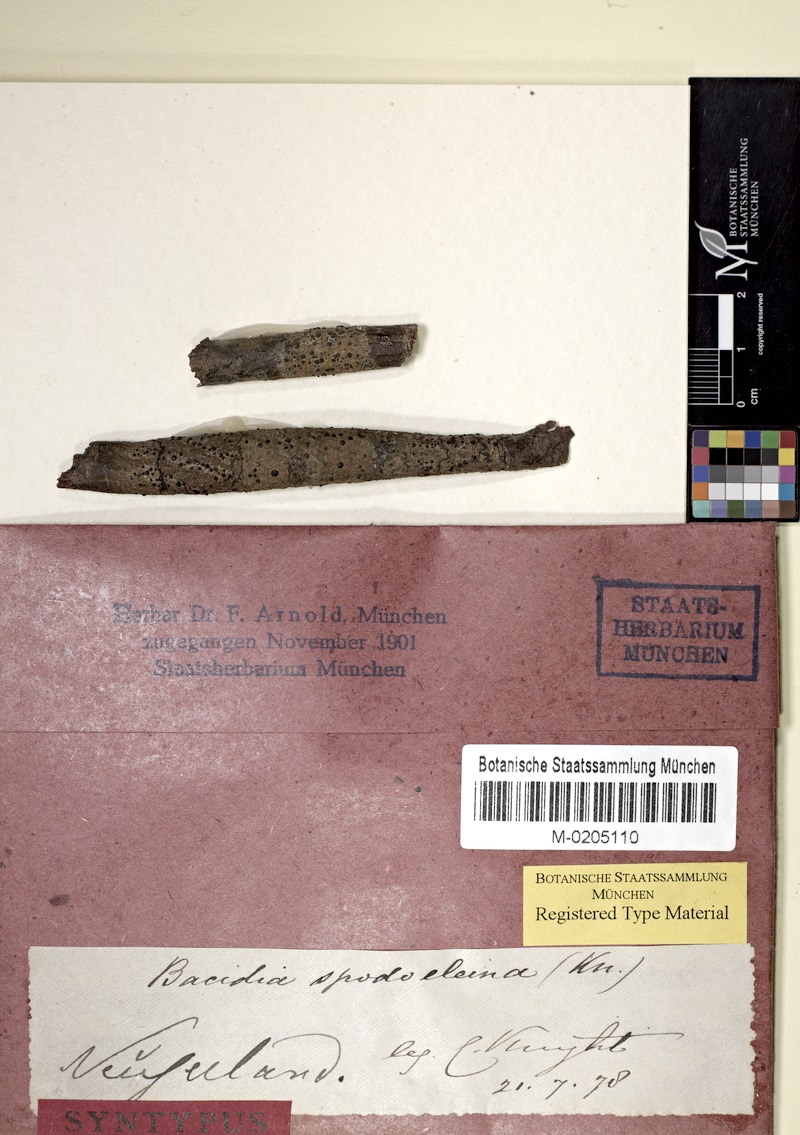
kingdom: Fungi
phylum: Ascomycota
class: Lecanoromycetes
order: Lecanorales
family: Ramalinaceae
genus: Bacidia
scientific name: Bacidia wellingtonii
